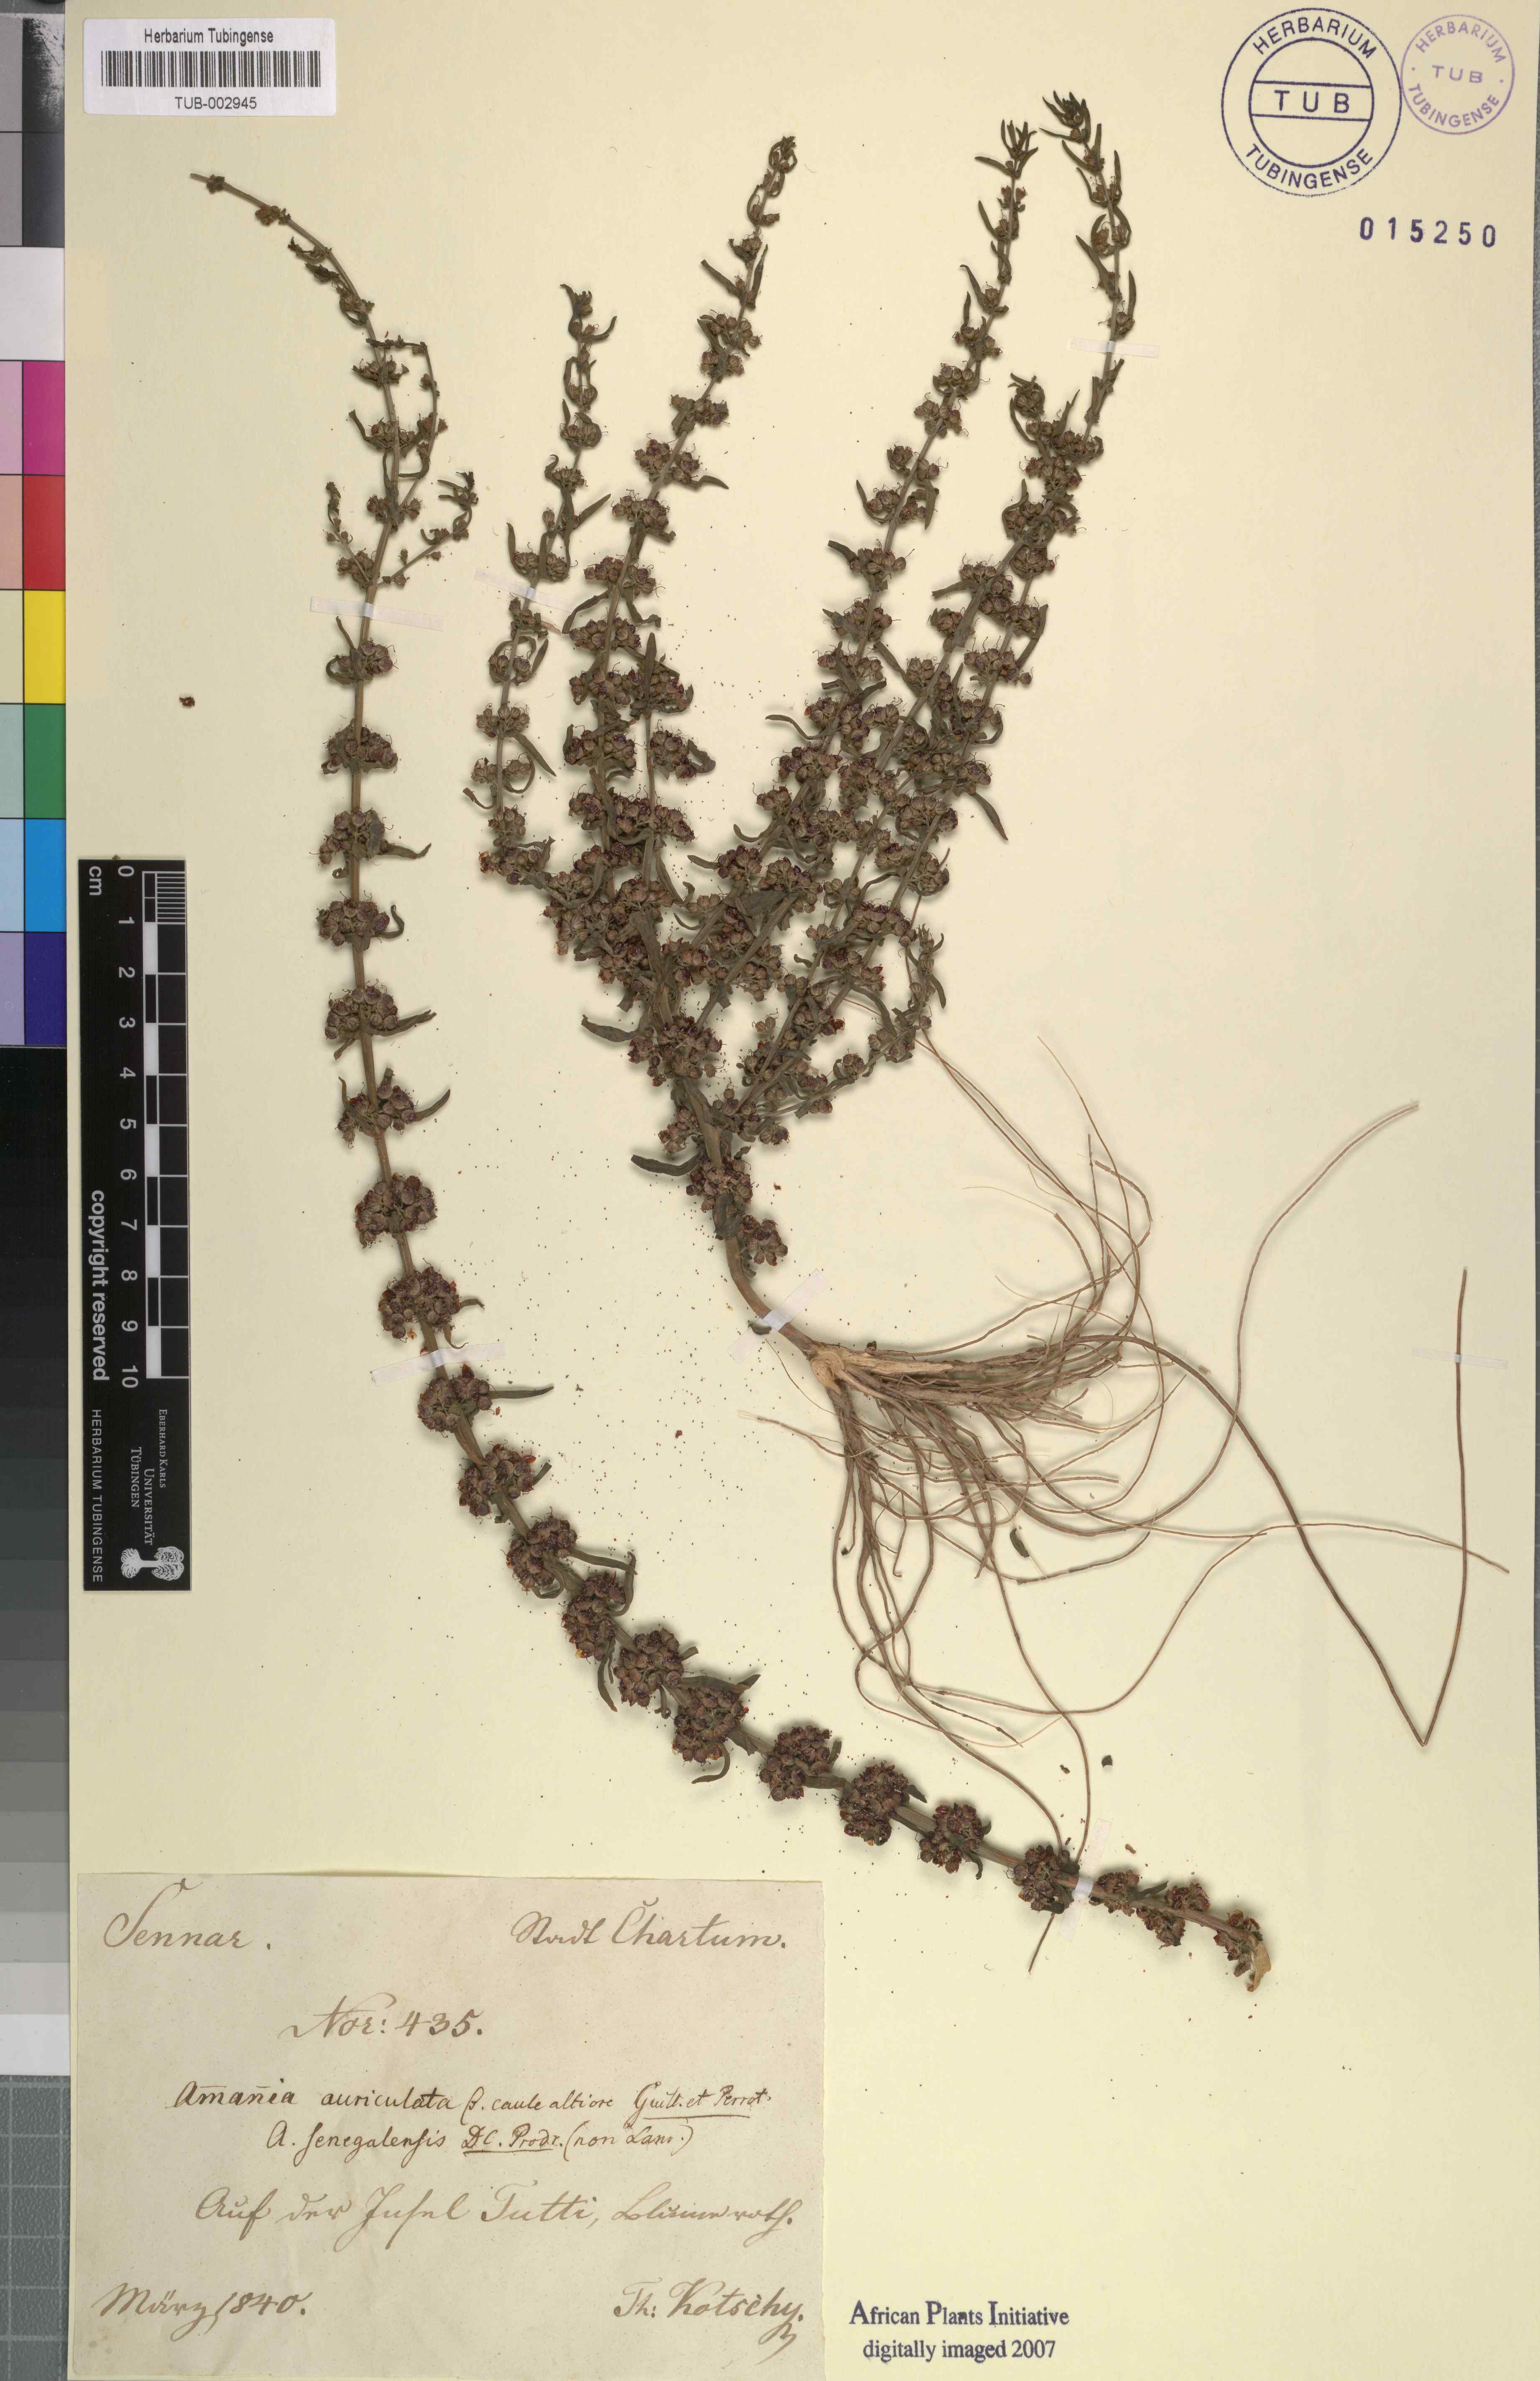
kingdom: Plantae
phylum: Tracheophyta
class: Magnoliopsida
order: Myrtales
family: Lythraceae
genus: Ammannia
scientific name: Ammannia auriculata
